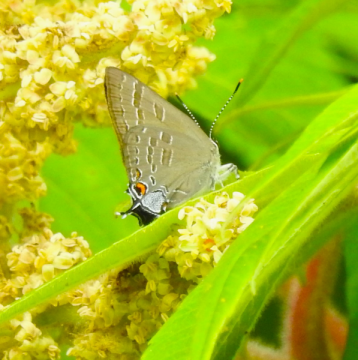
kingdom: Animalia
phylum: Arthropoda
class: Insecta
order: Lepidoptera
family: Lycaenidae
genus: Strymon
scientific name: Strymon caryaevorus
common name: Hickory Hairstreak
